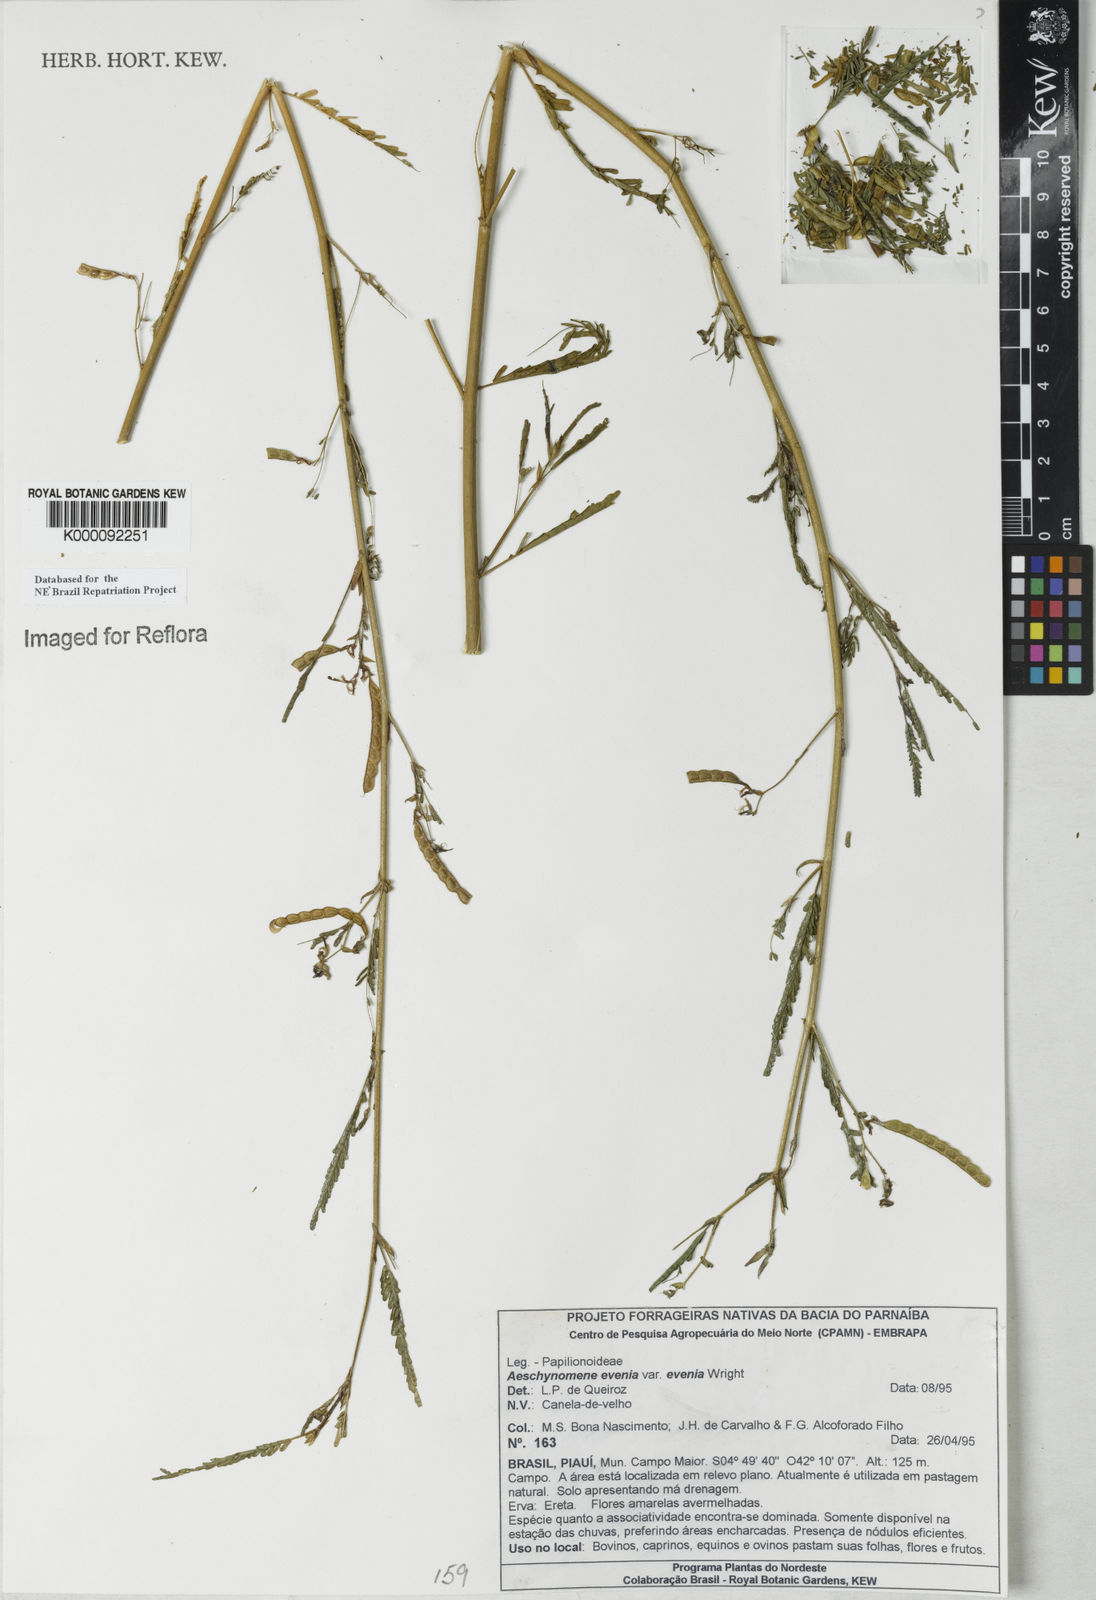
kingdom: Plantae
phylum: Tracheophyta
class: Magnoliopsida
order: Fabales
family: Fabaceae
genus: Aeschynomene
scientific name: Aeschynomene evenia
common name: Shrubby jointvetch
